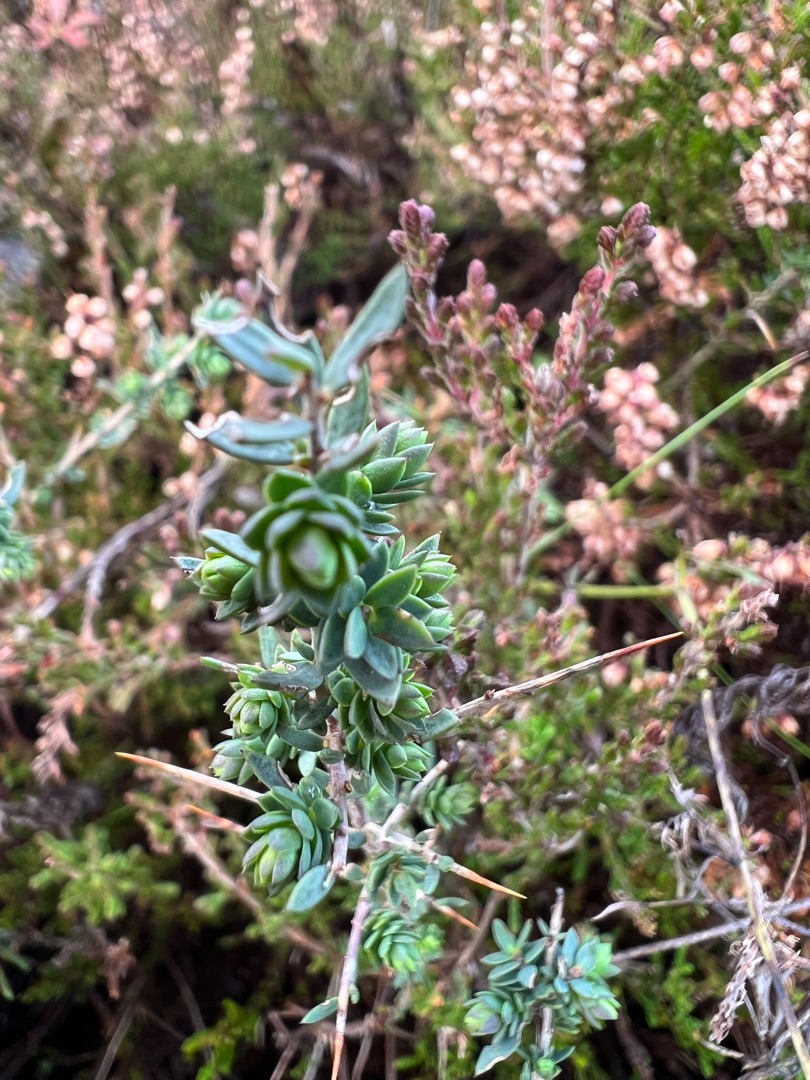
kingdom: Plantae
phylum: Tracheophyta
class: Magnoliopsida
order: Fabales
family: Fabaceae
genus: Genista
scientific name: Genista anglica
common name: Engelsk visse
